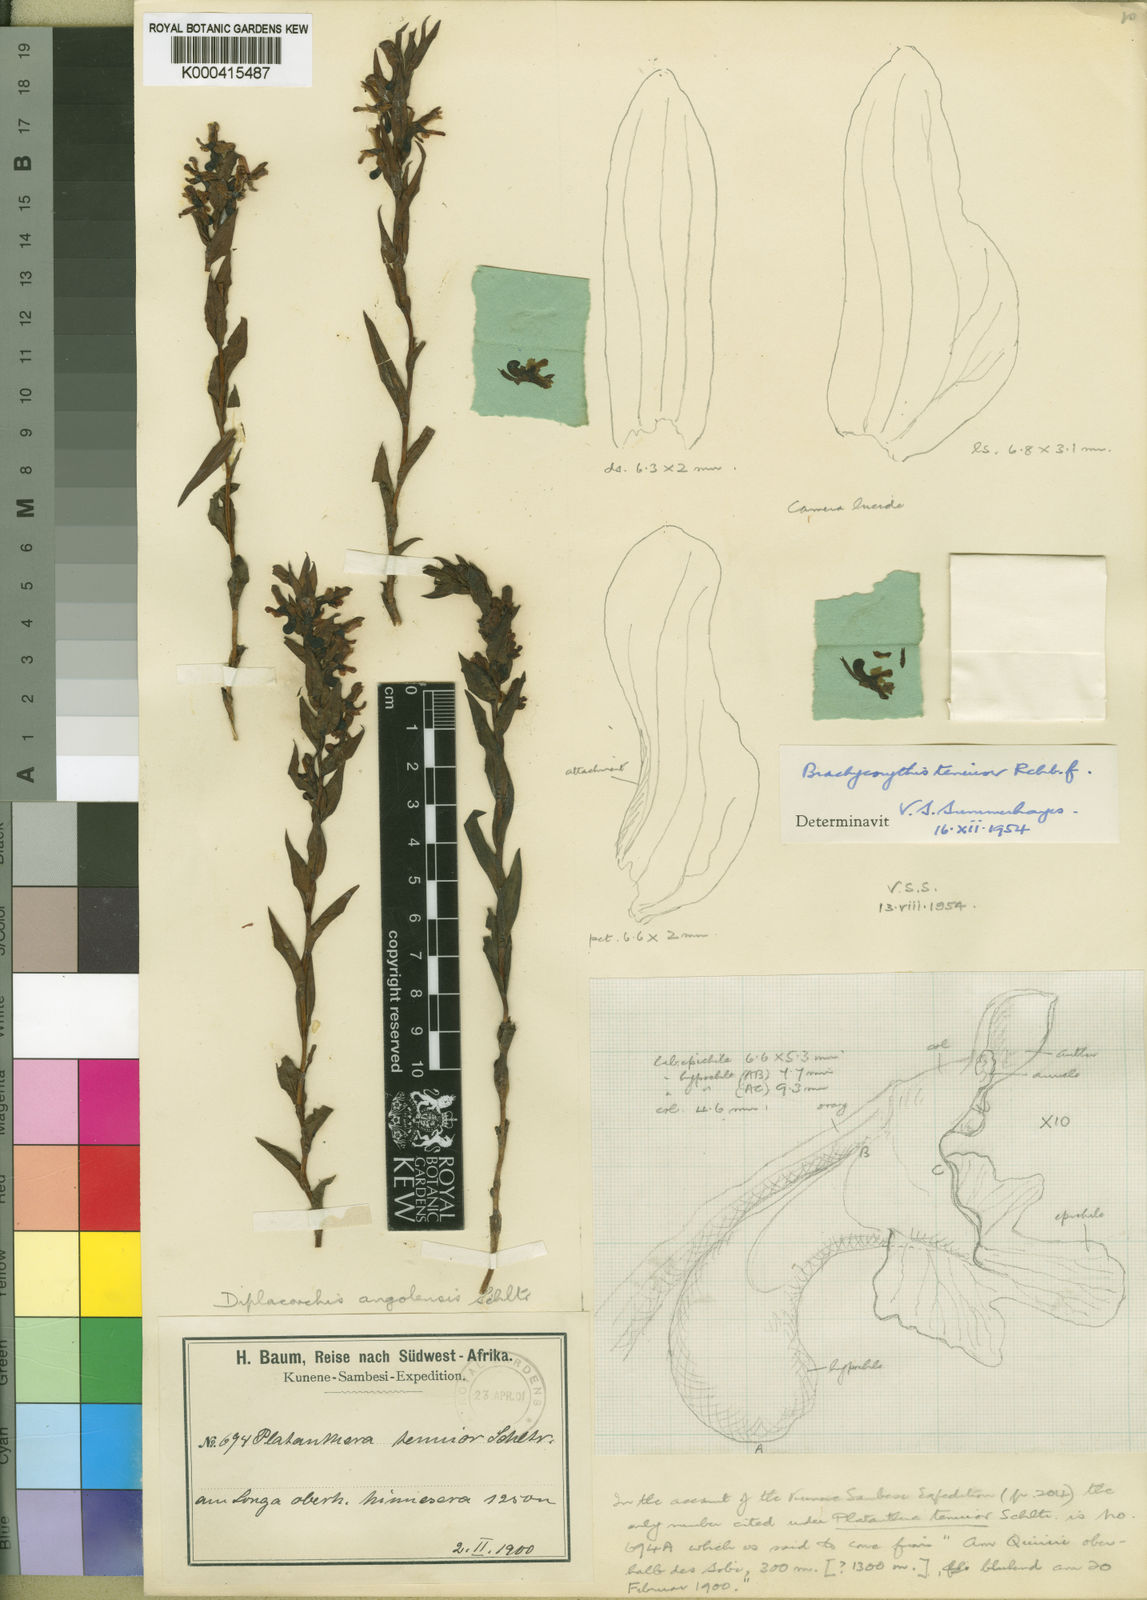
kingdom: Plantae
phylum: Tracheophyta
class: Liliopsida
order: Asparagales
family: Orchidaceae
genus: Brachycorythis
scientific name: Brachycorythis tenuior
